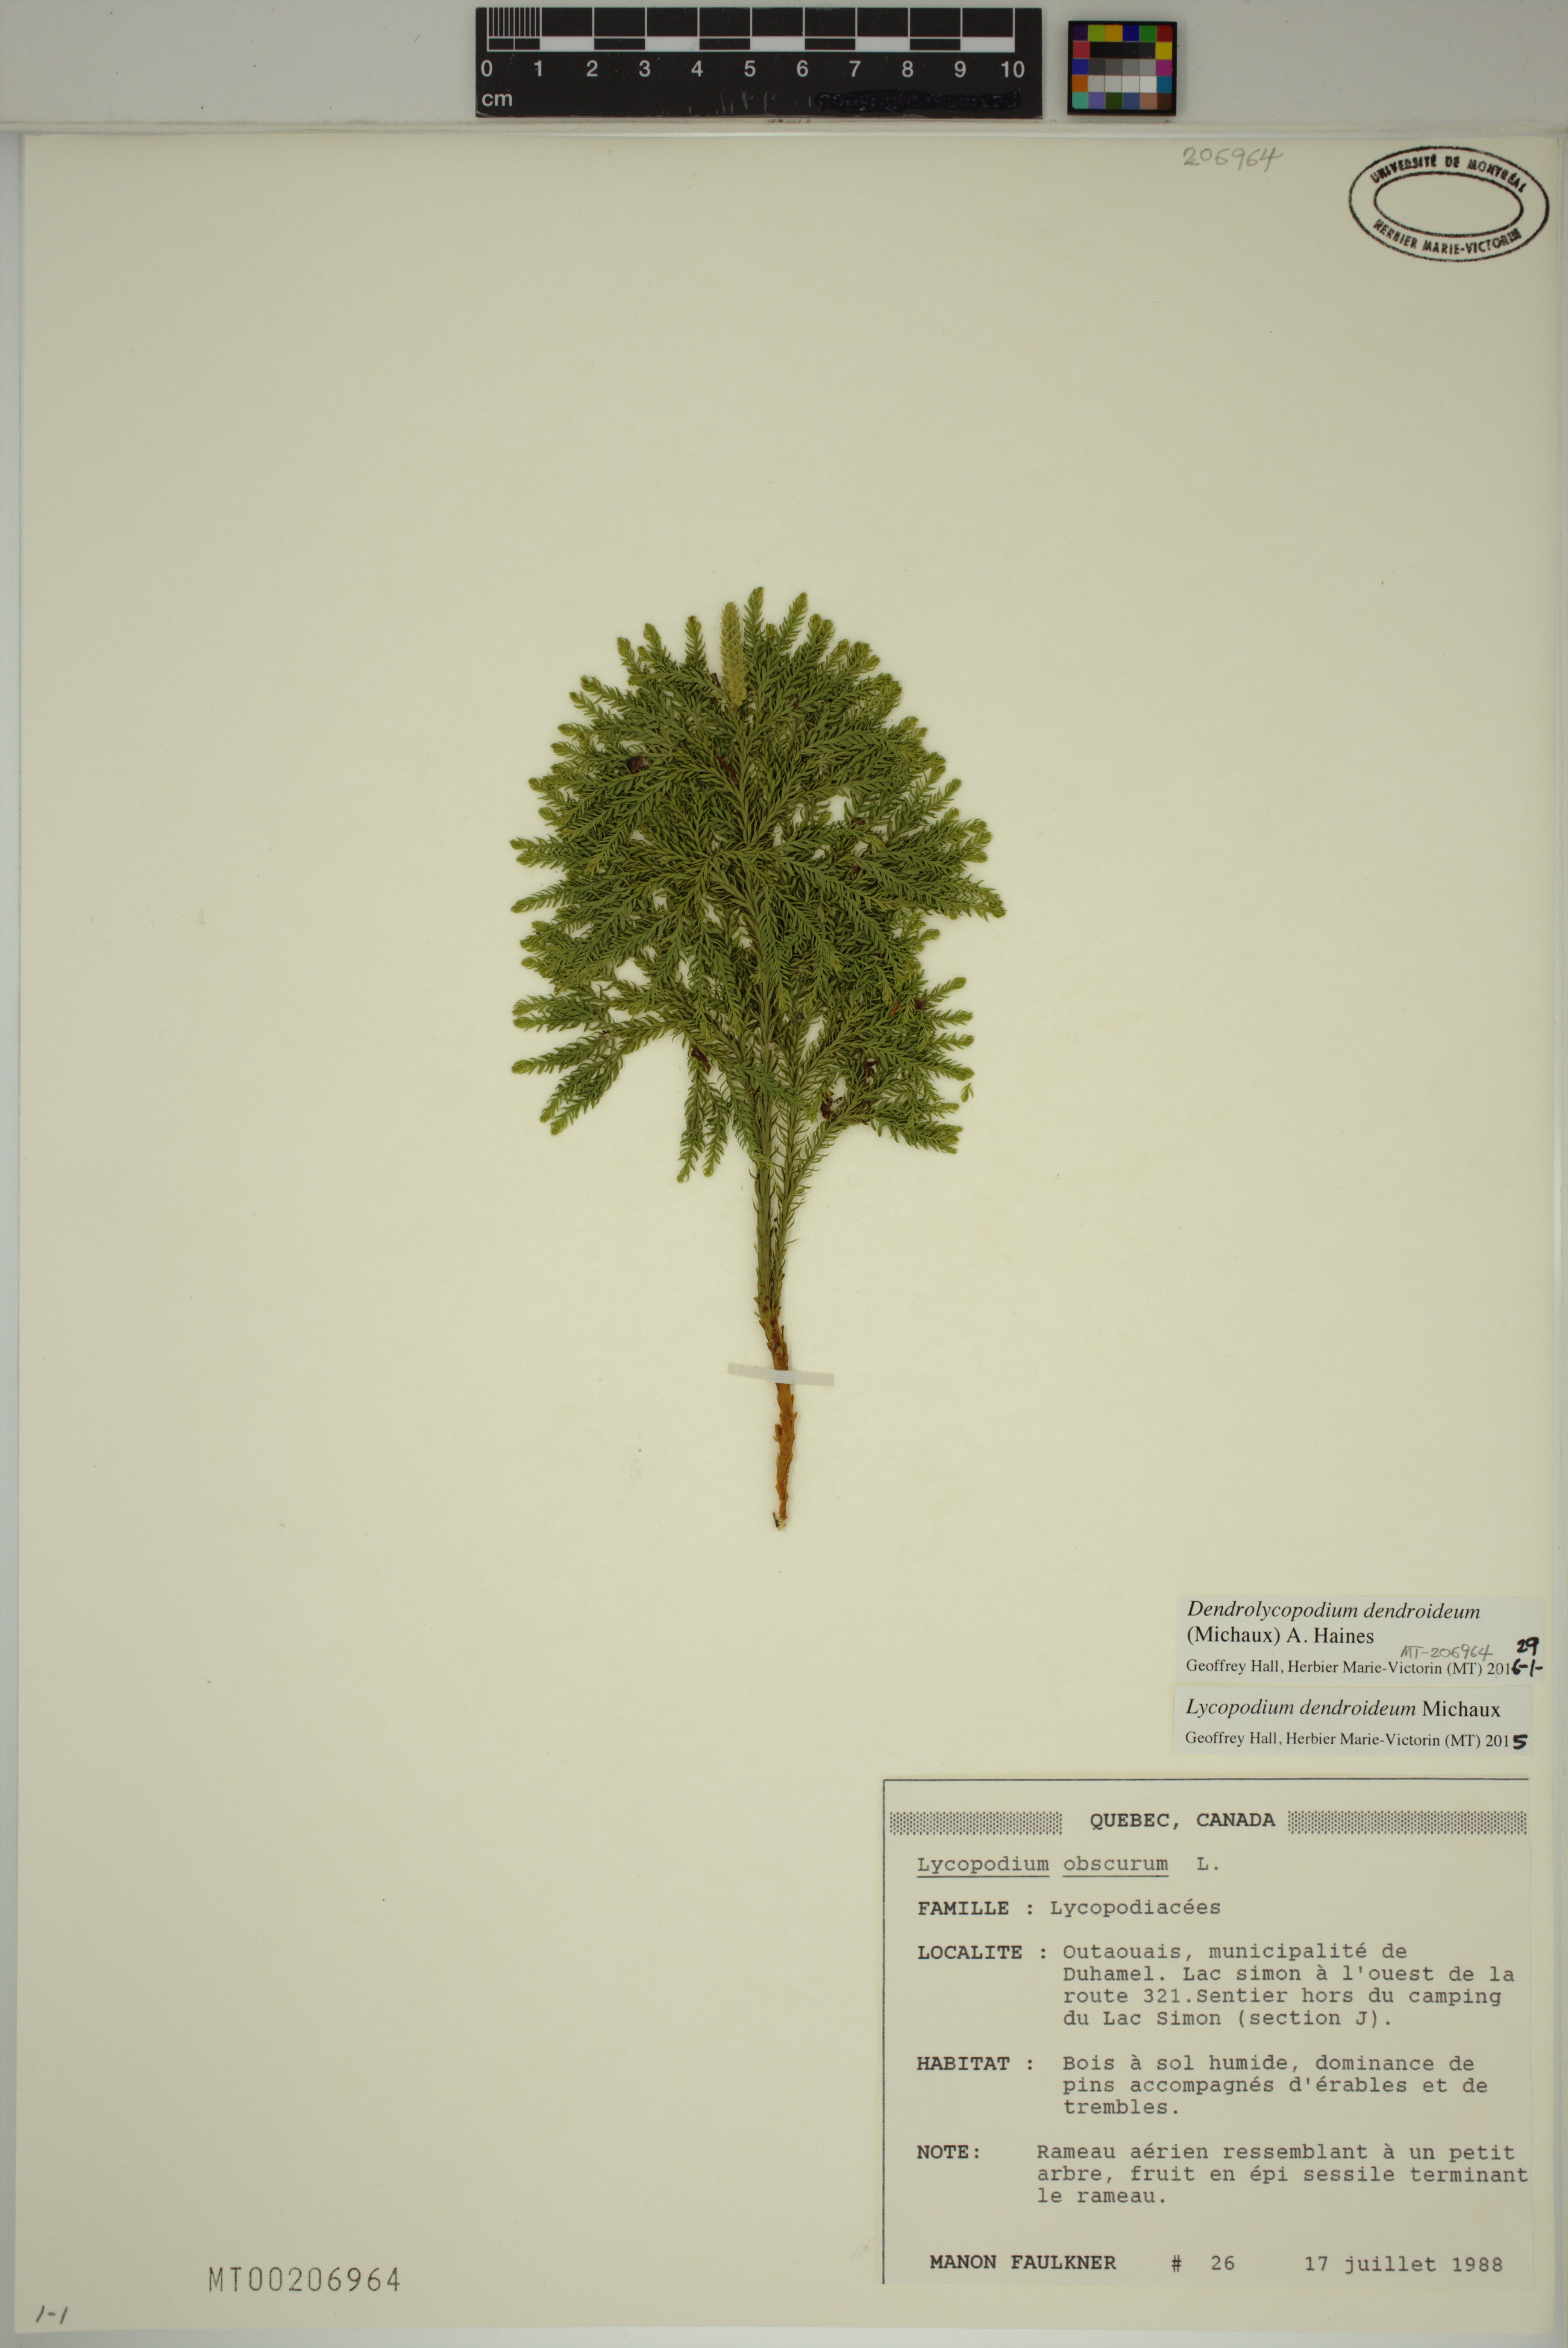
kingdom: Plantae
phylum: Tracheophyta
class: Lycopodiopsida
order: Lycopodiales
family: Lycopodiaceae
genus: Dendrolycopodium
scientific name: Dendrolycopodium dendroideum
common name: Northern tree-clubmoss
